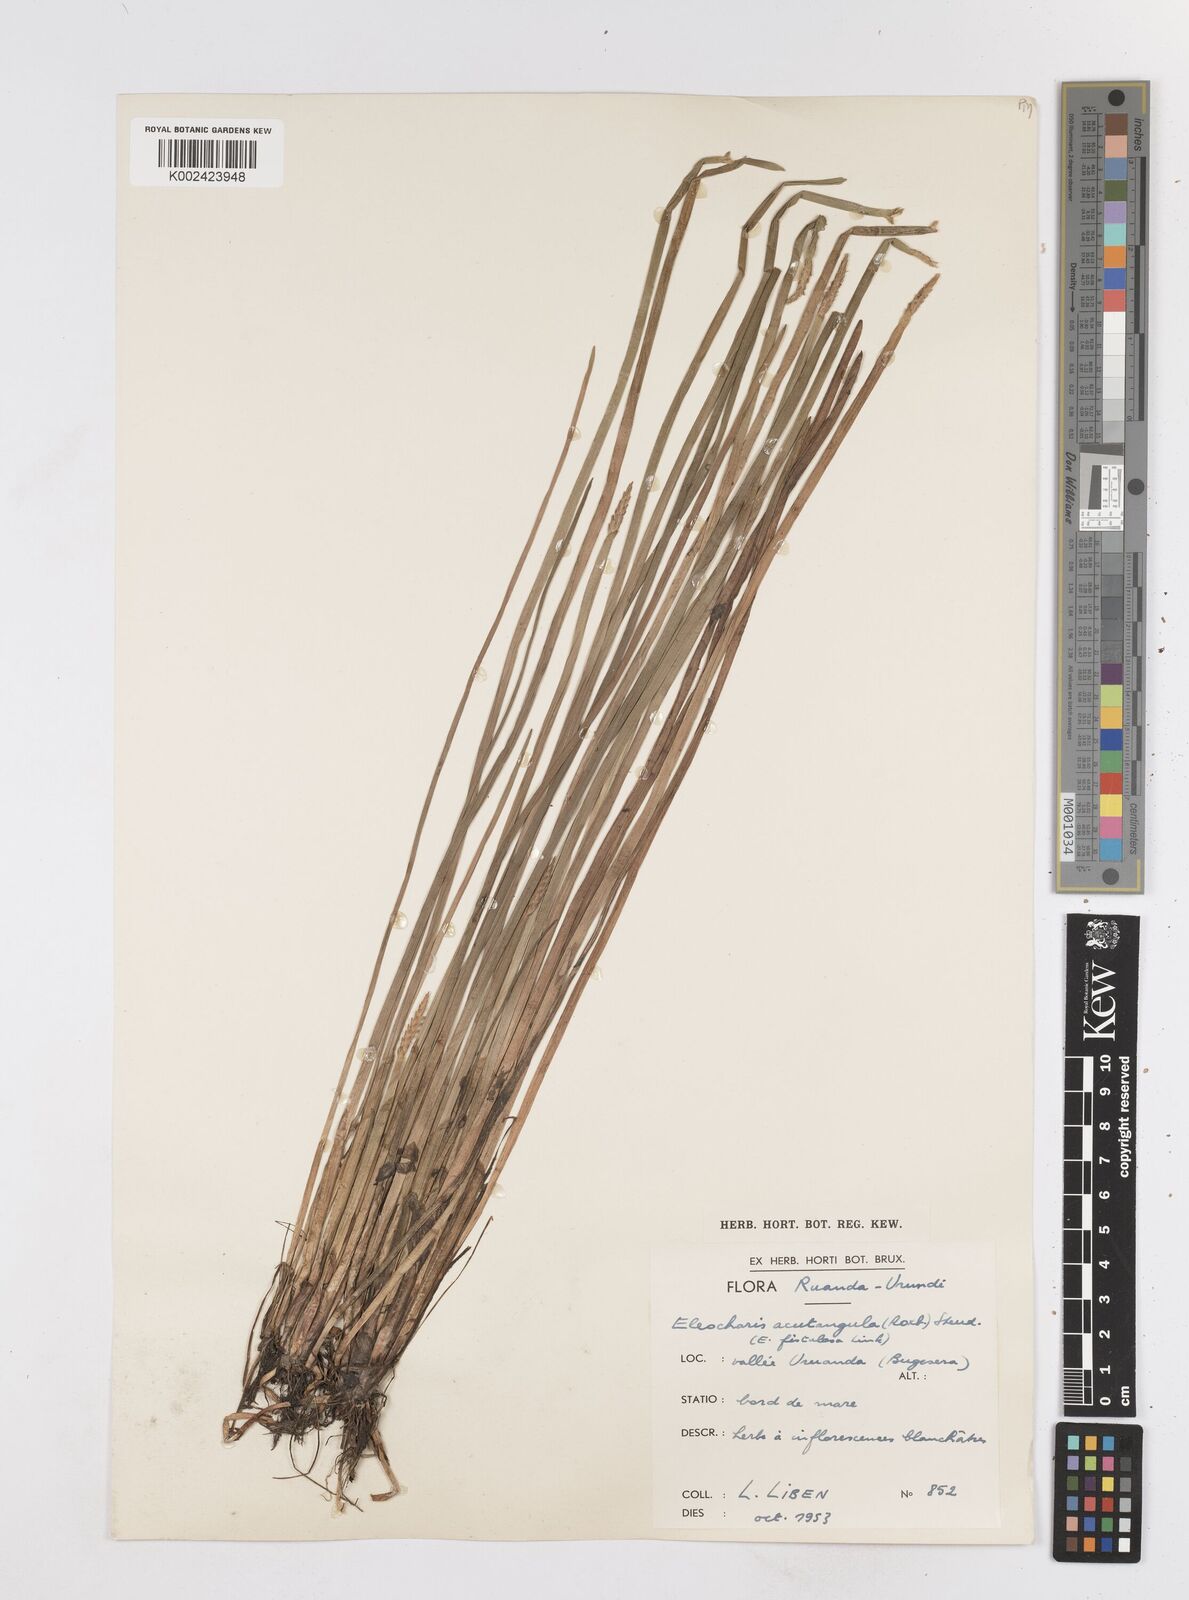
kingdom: Plantae
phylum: Tracheophyta
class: Liliopsida
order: Poales
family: Cyperaceae
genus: Eleocharis
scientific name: Eleocharis acutangula
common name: Acute spikerush
